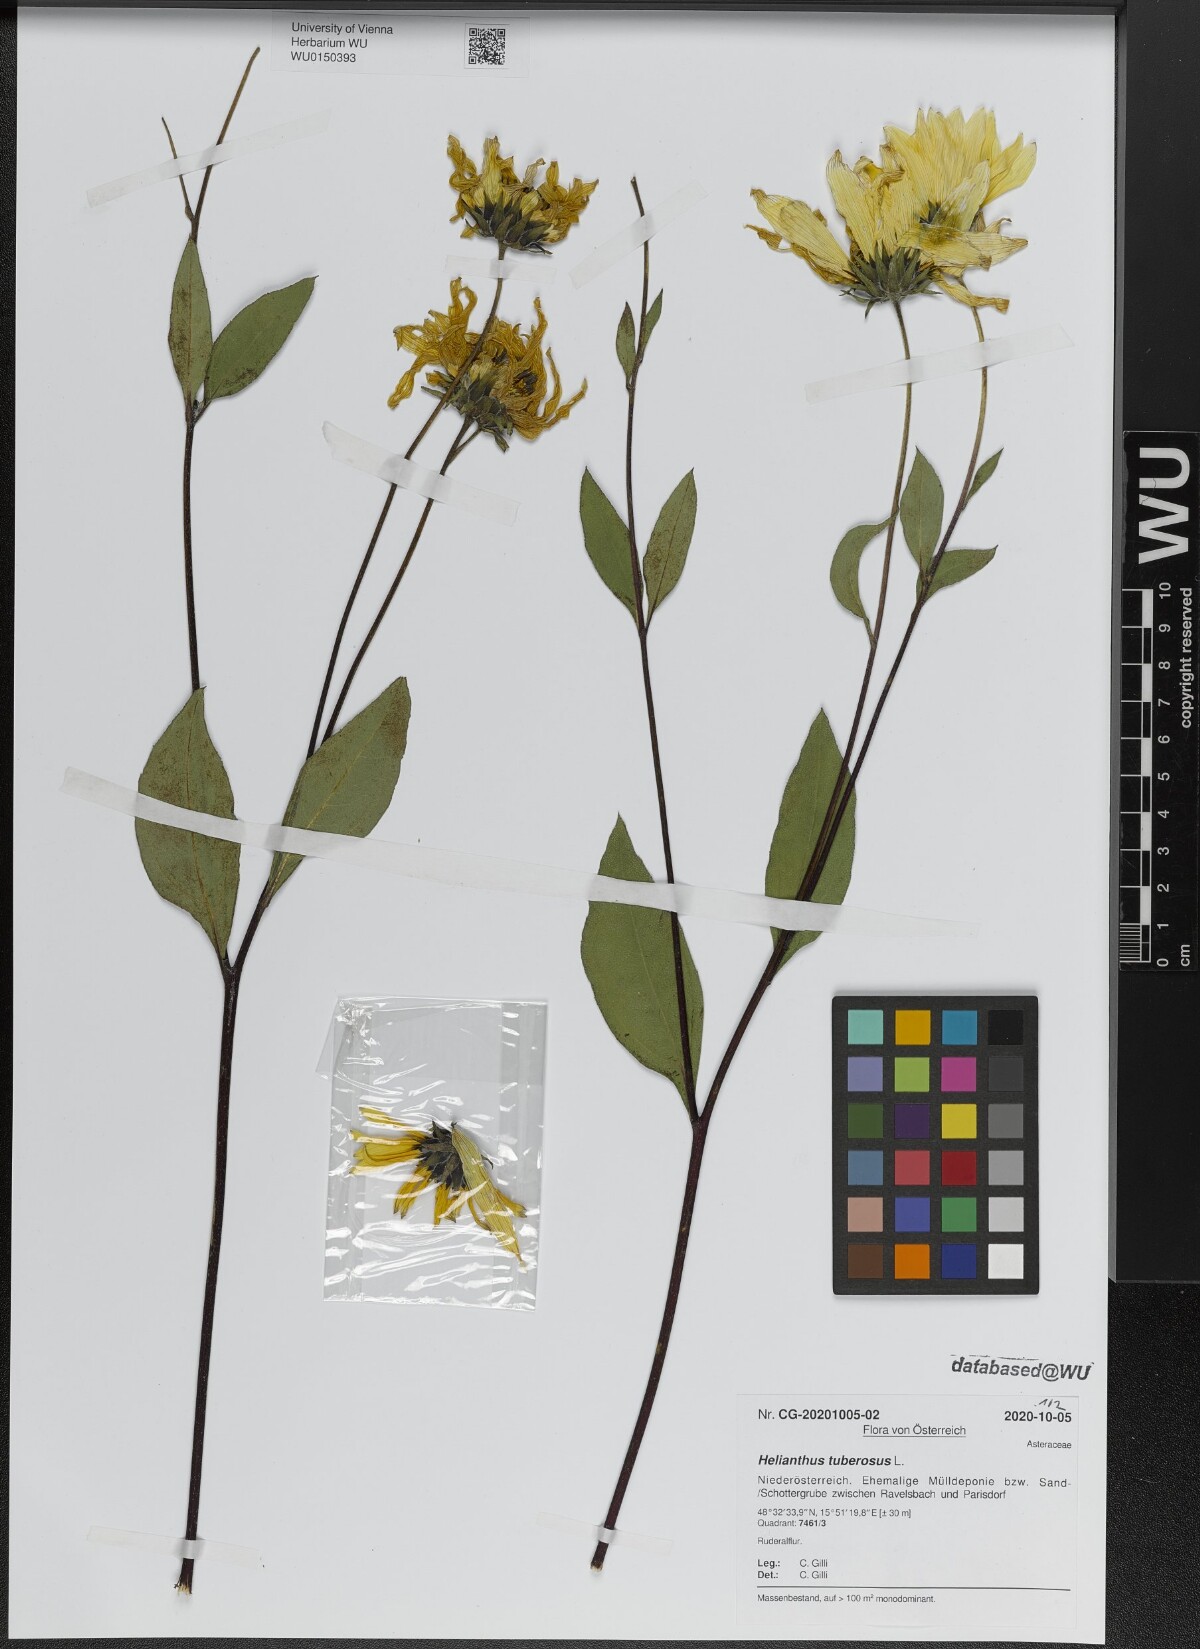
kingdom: Plantae
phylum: Tracheophyta
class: Magnoliopsida
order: Asterales
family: Asteraceae
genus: Helianthus
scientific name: Helianthus tuberosus
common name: Jerusalem artichoke
